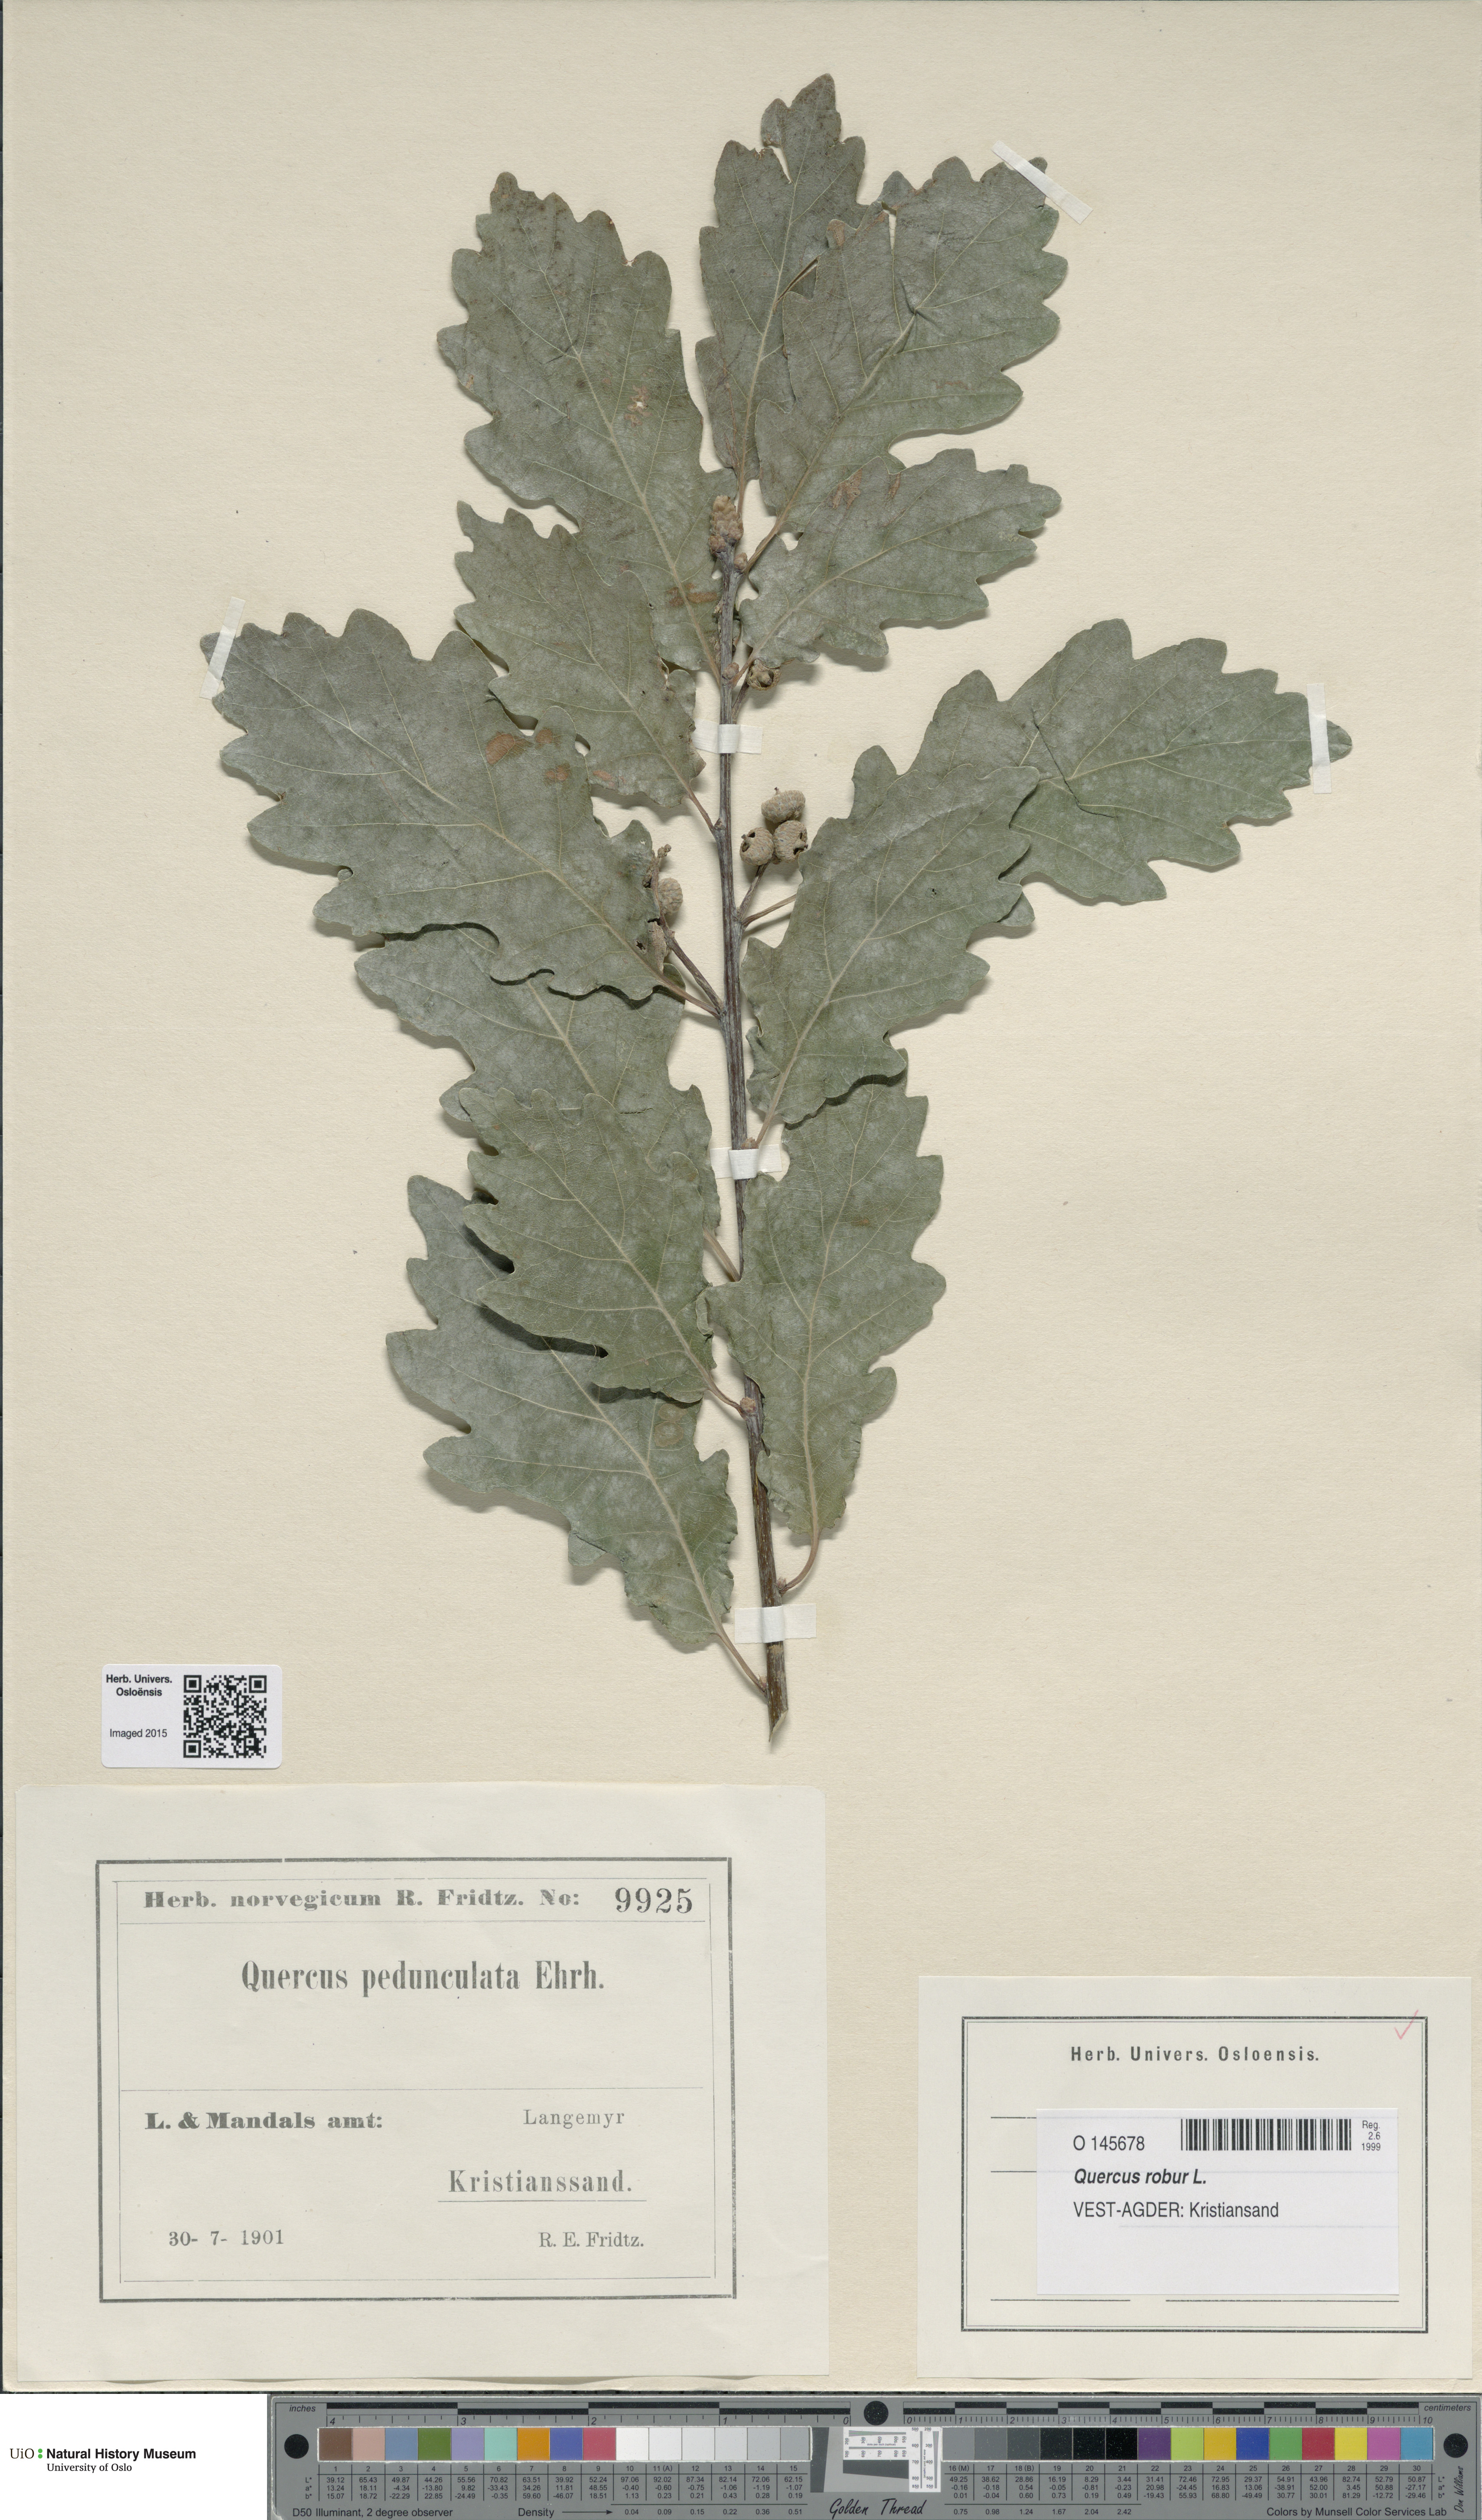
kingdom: Plantae
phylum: Tracheophyta
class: Magnoliopsida
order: Fagales
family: Fagaceae
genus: Quercus
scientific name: Quercus robur
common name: Pedunculate oak
